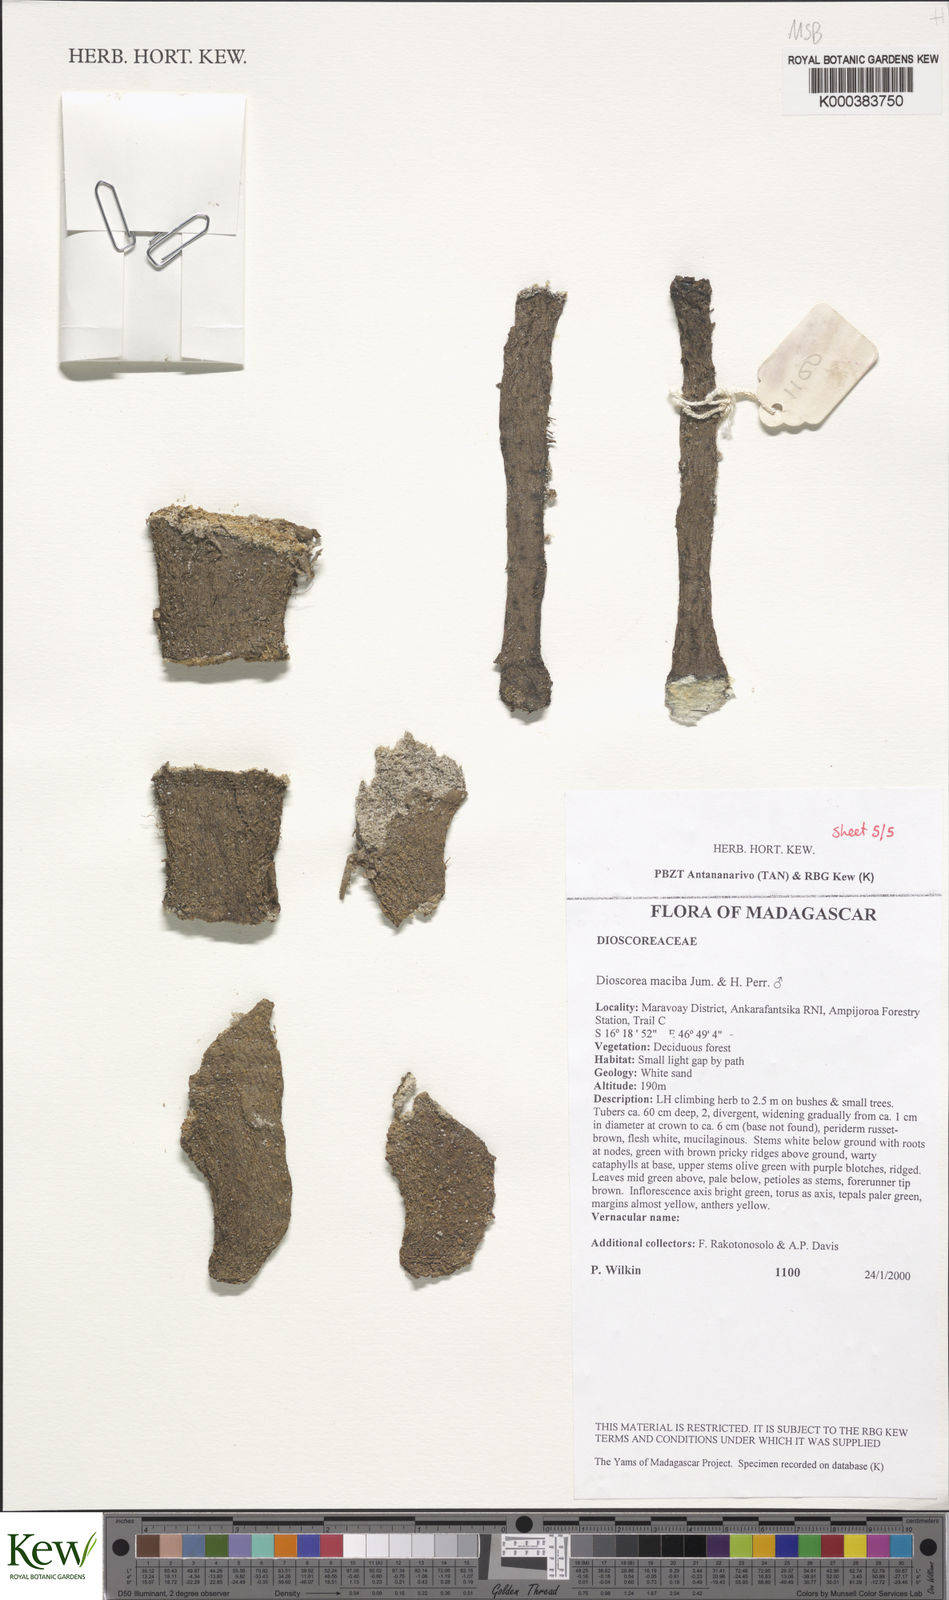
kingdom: Plantae
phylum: Tracheophyta
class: Liliopsida
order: Dioscoreales
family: Dioscoreaceae
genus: Dioscorea
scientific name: Dioscorea
